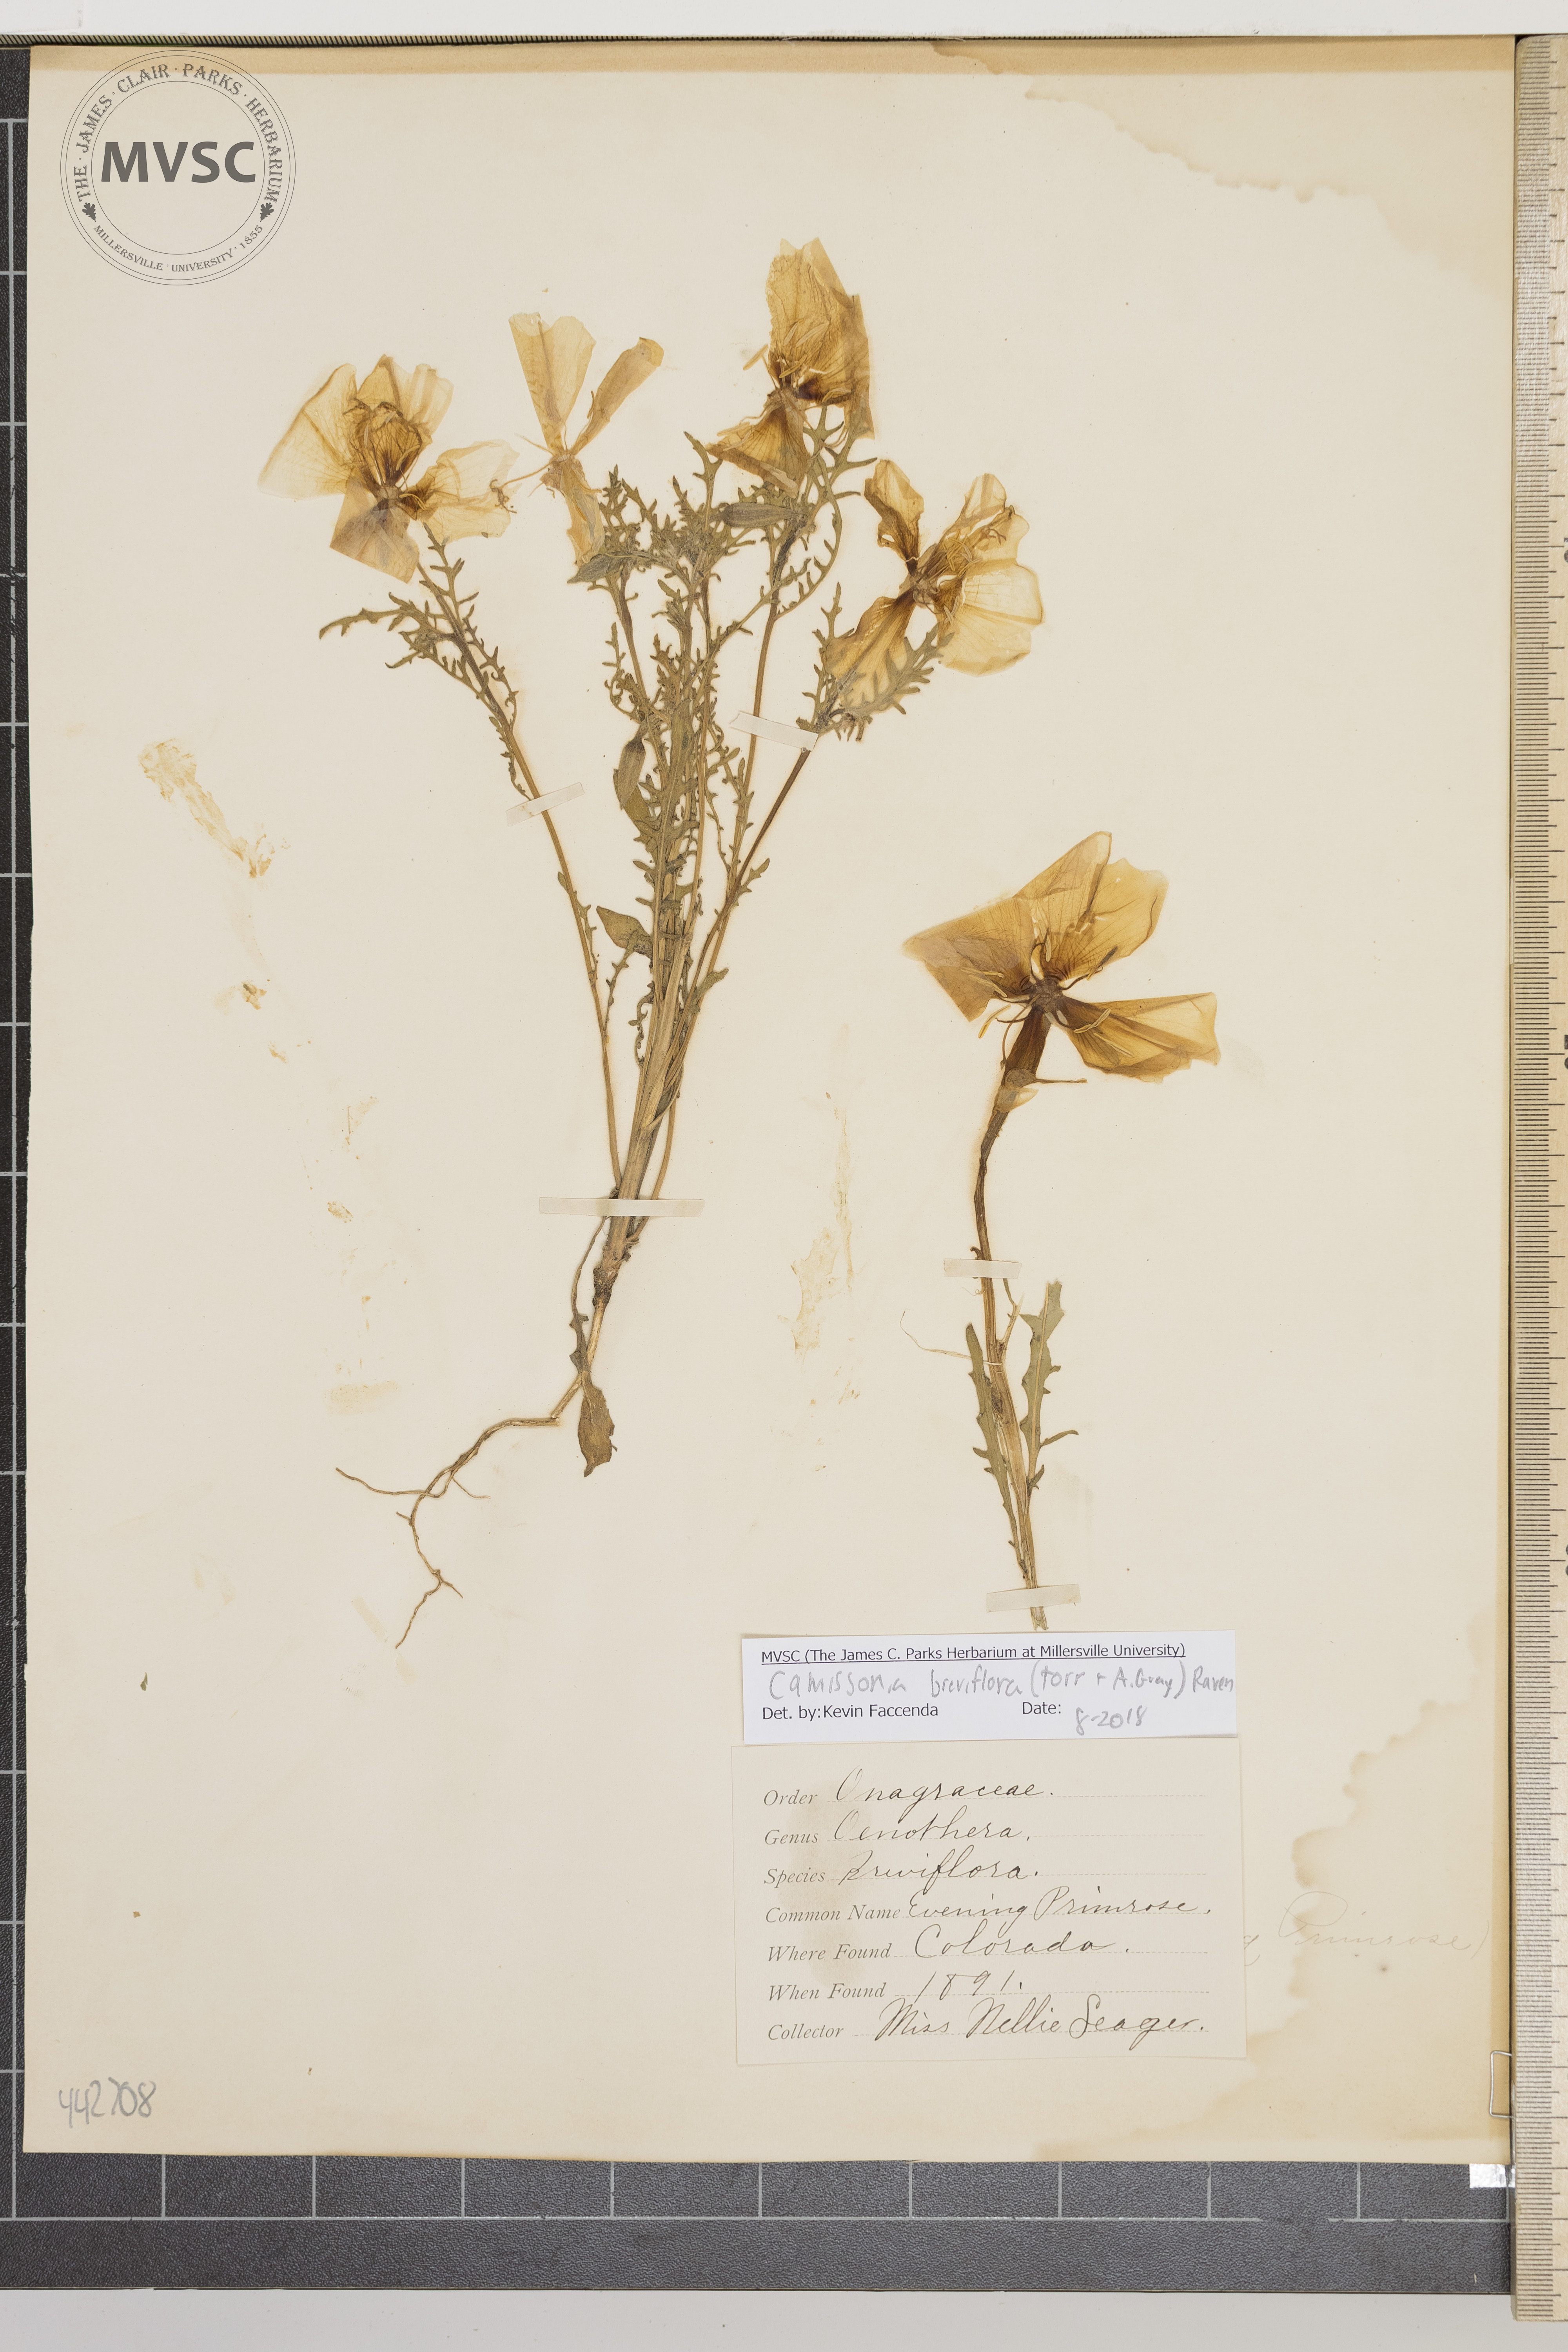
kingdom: Plantae
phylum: Tracheophyta
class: Magnoliopsida
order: Myrtales
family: Onagraceae
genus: Taraxia
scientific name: Taraxia breviflora
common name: Evening primrose
